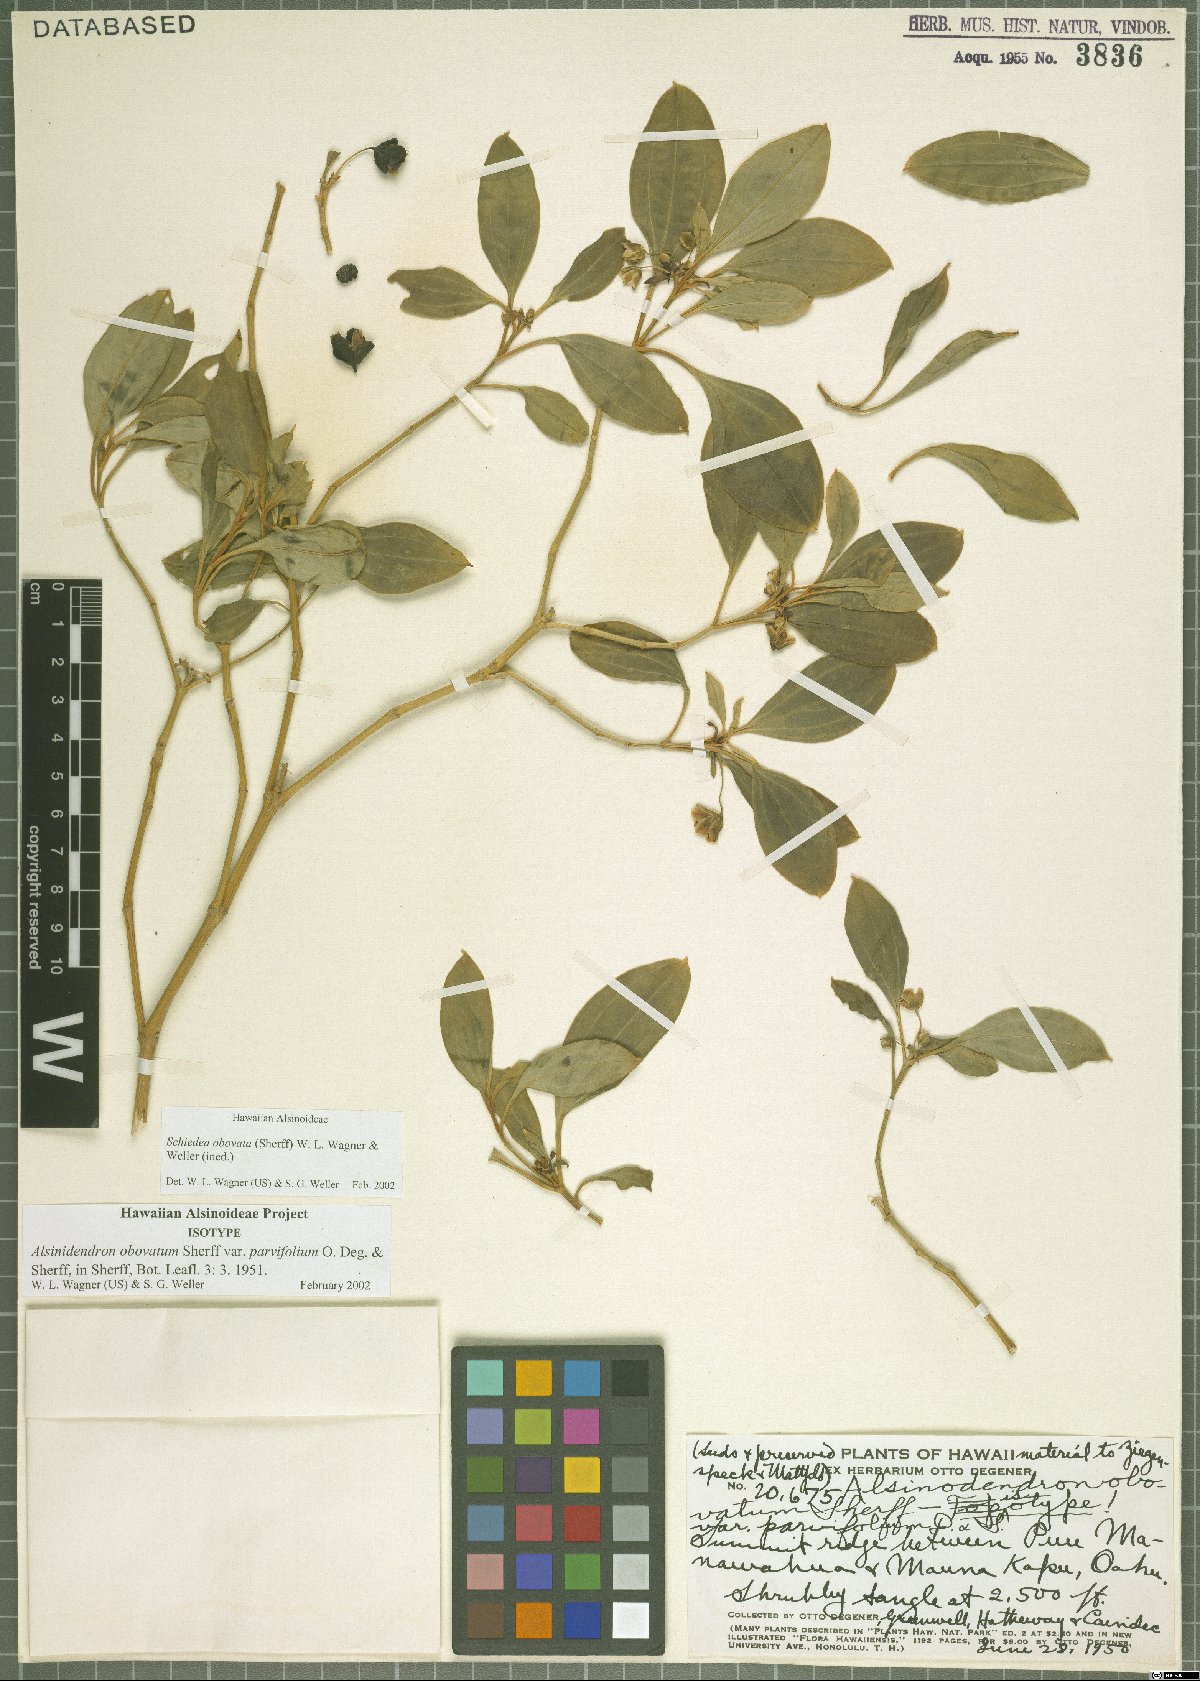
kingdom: Plantae
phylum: Tracheophyta
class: Magnoliopsida
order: Caryophyllales
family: Caryophyllaceae
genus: Schiedea
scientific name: Schiedea obovata
